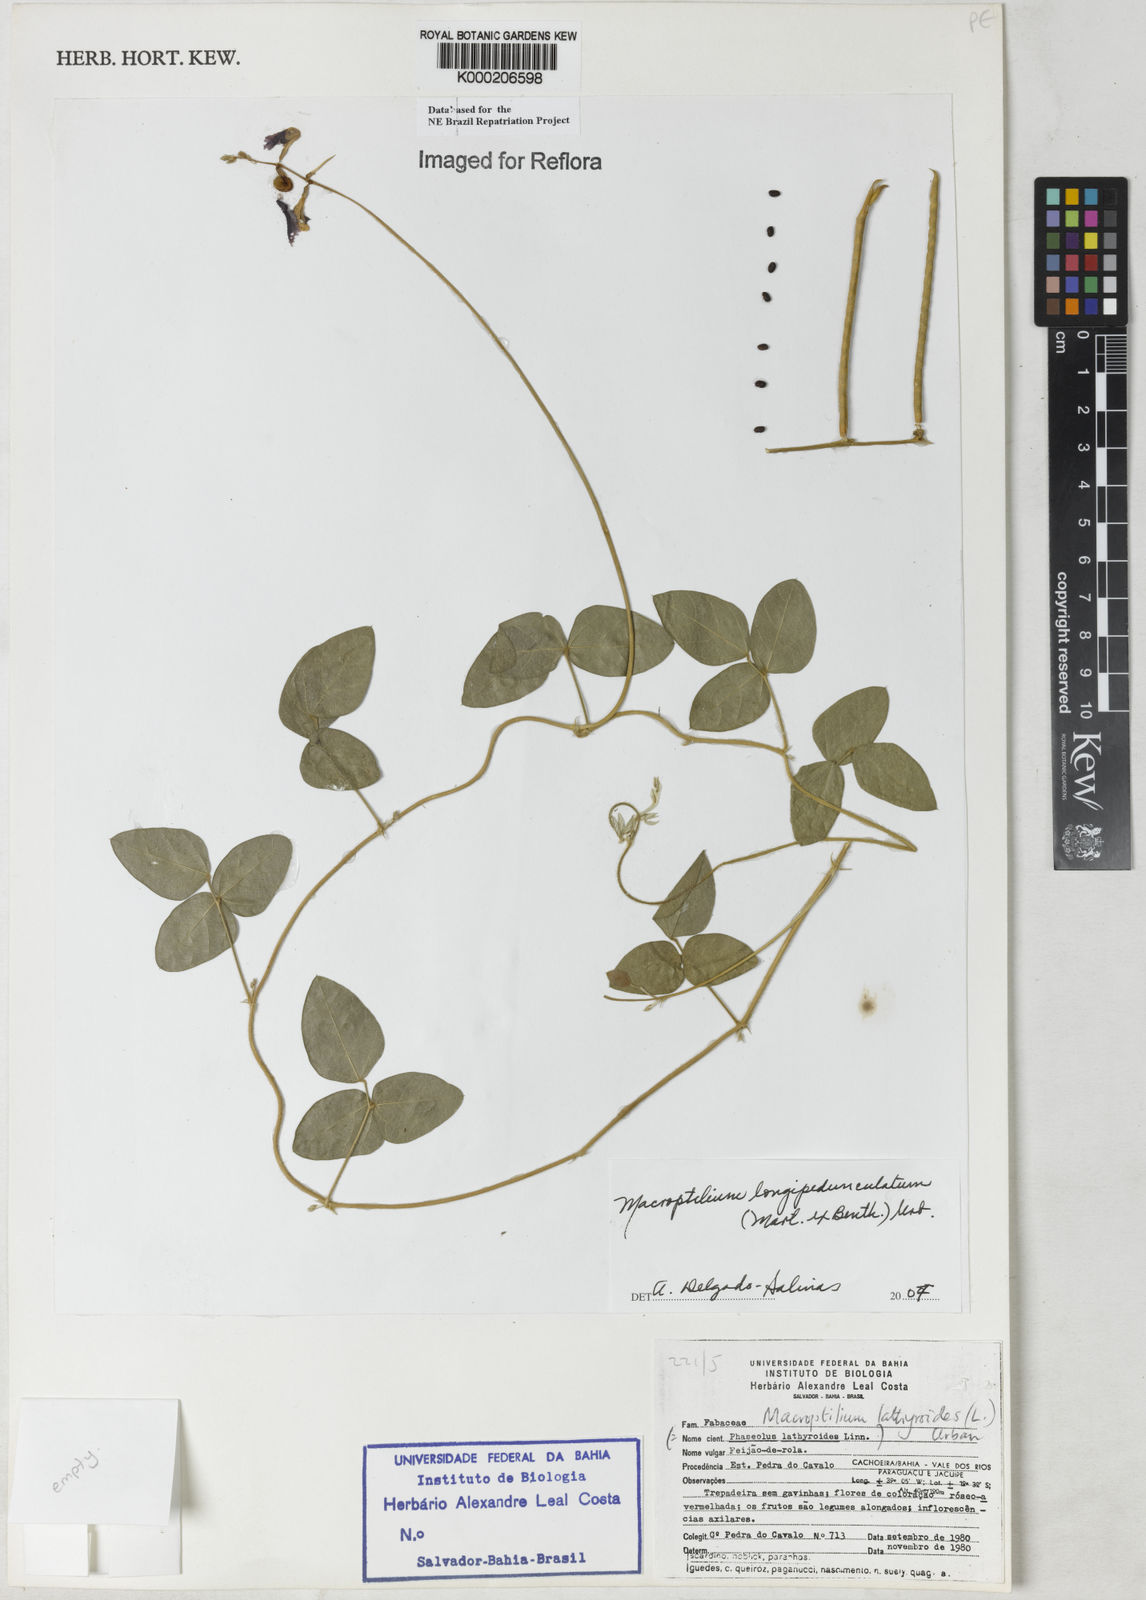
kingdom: Plantae
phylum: Tracheophyta
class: Magnoliopsida
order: Fabales
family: Fabaceae
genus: Macroptilium
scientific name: Macroptilium lathyroides
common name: Wild bushbean
